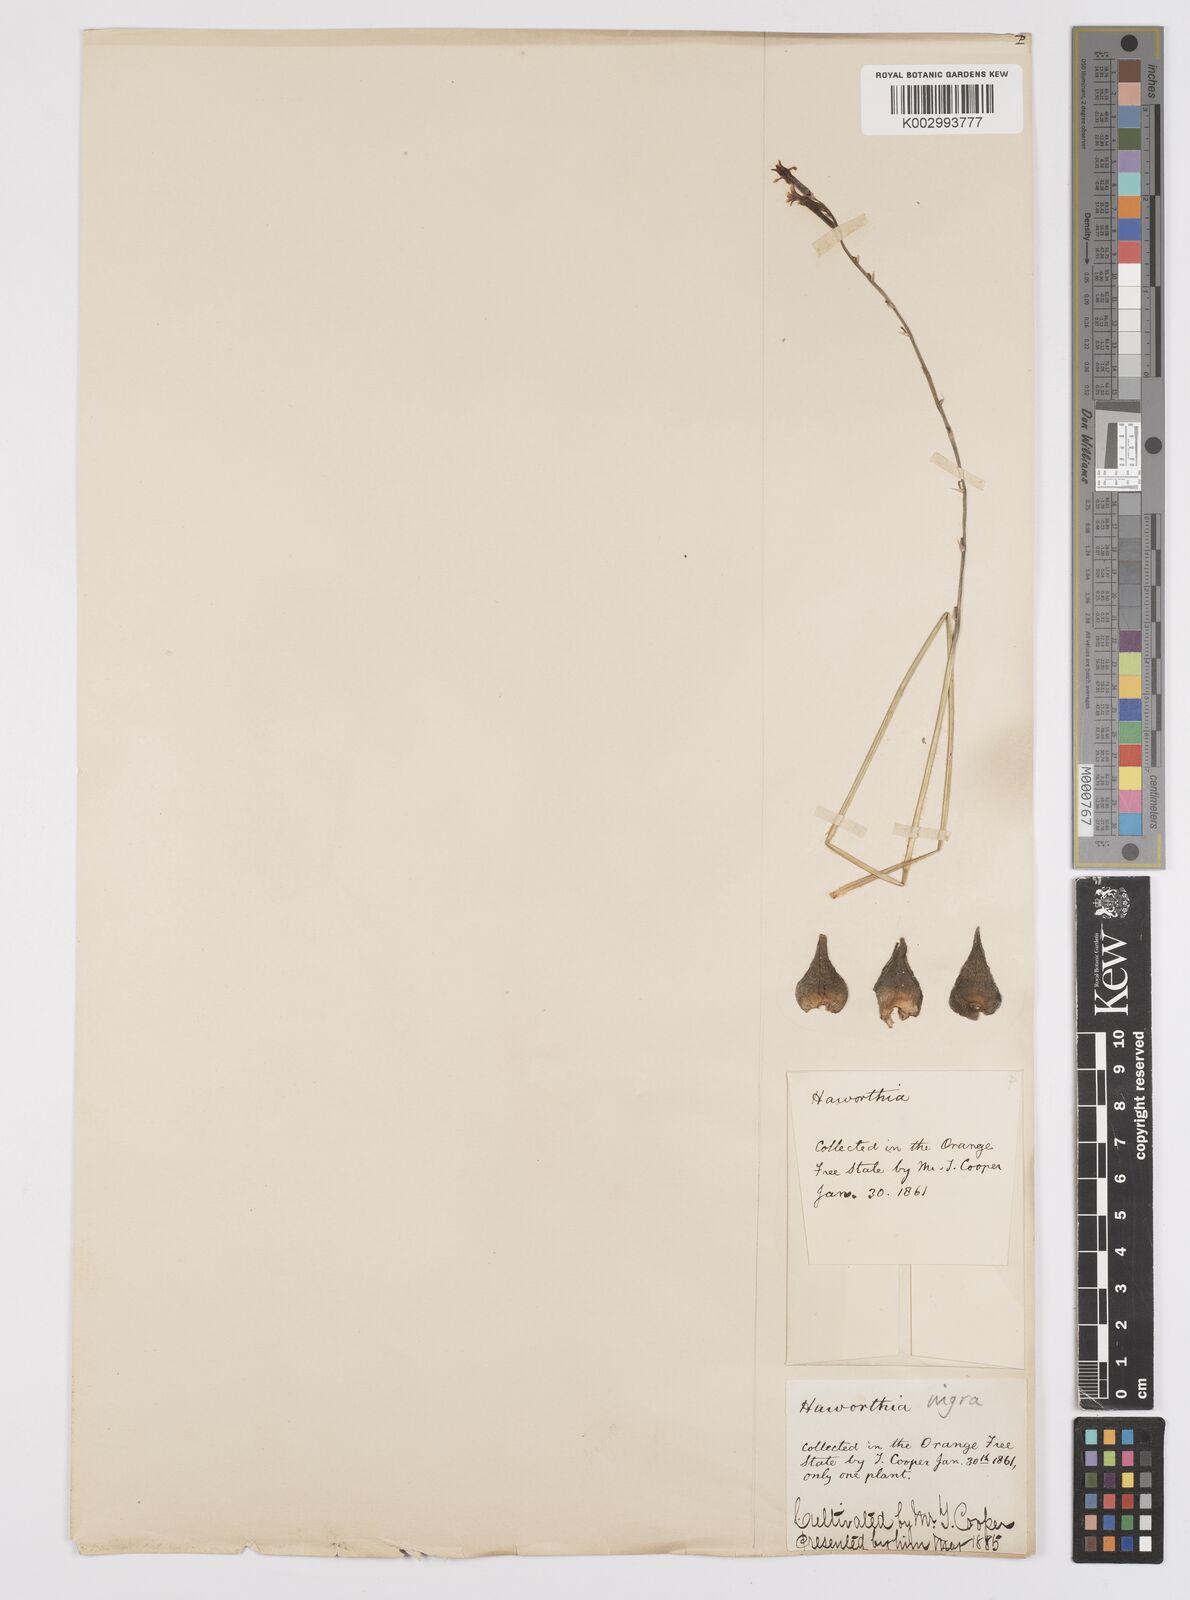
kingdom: Plantae
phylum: Tracheophyta
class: Liliopsida
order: Asparagales
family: Asphodelaceae
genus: Haworthiopsis
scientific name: Haworthiopsis nigra
